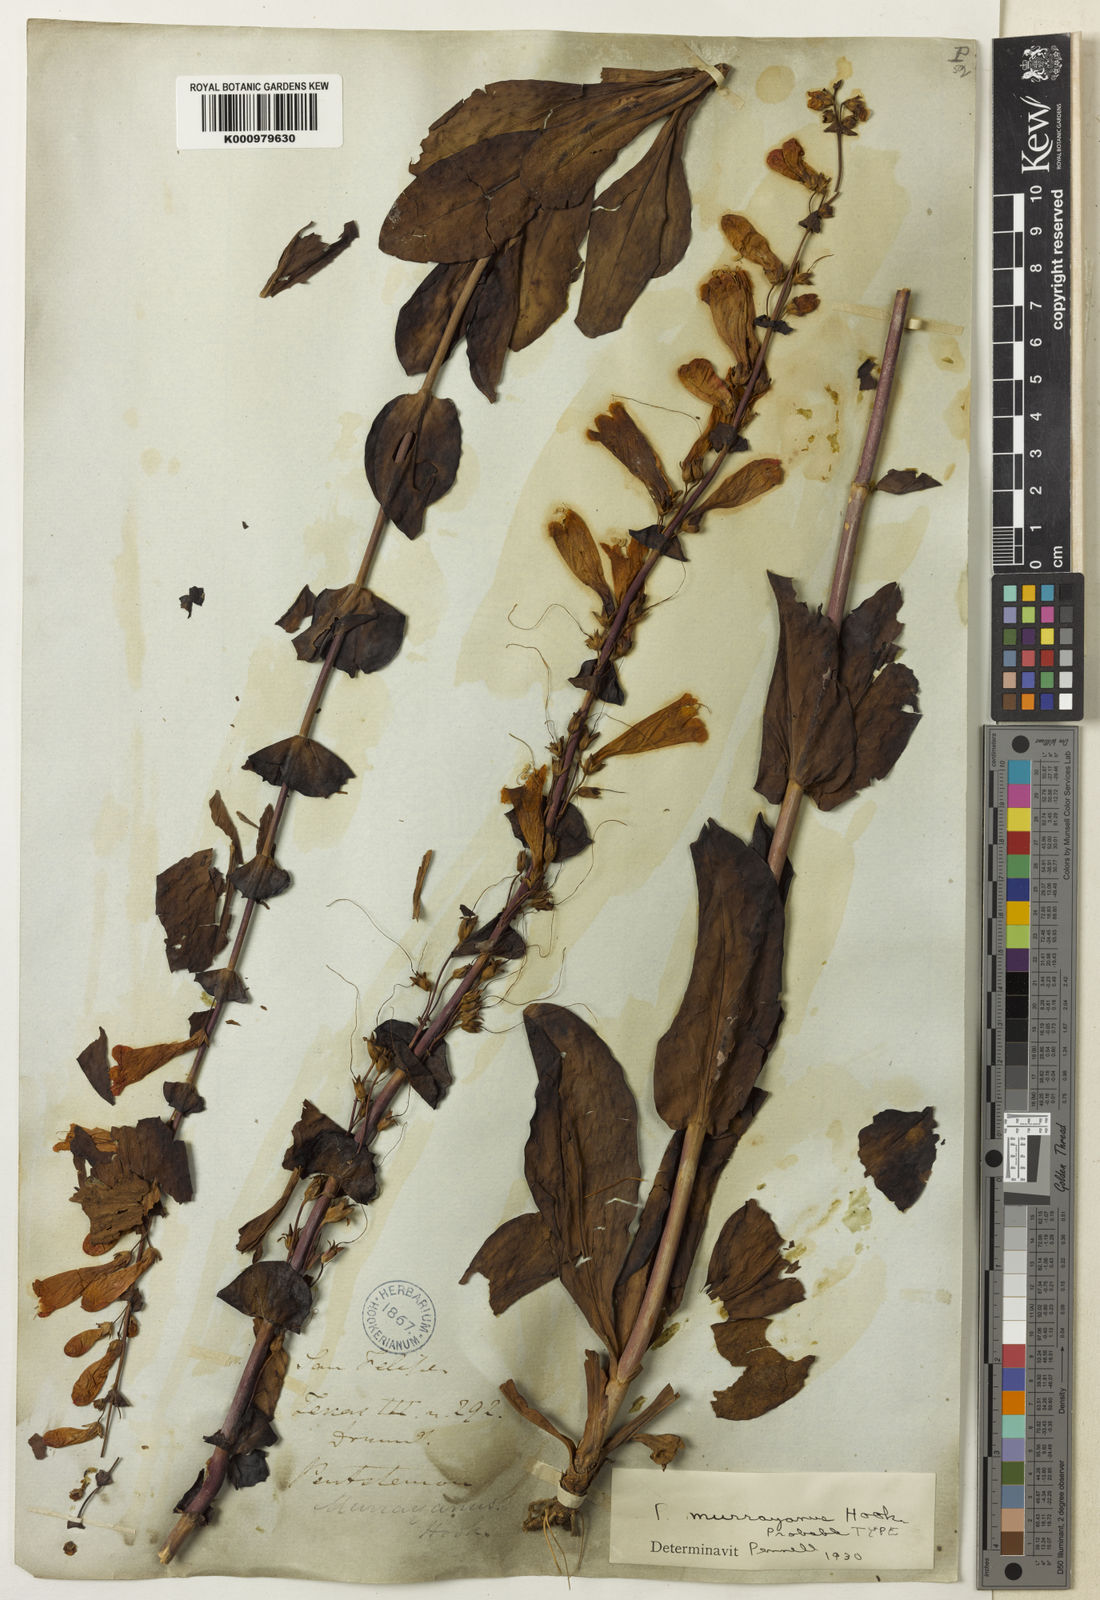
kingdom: Plantae
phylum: Tracheophyta
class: Magnoliopsida
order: Lamiales
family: Plantaginaceae
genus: Penstemon
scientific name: Penstemon murrayanus
